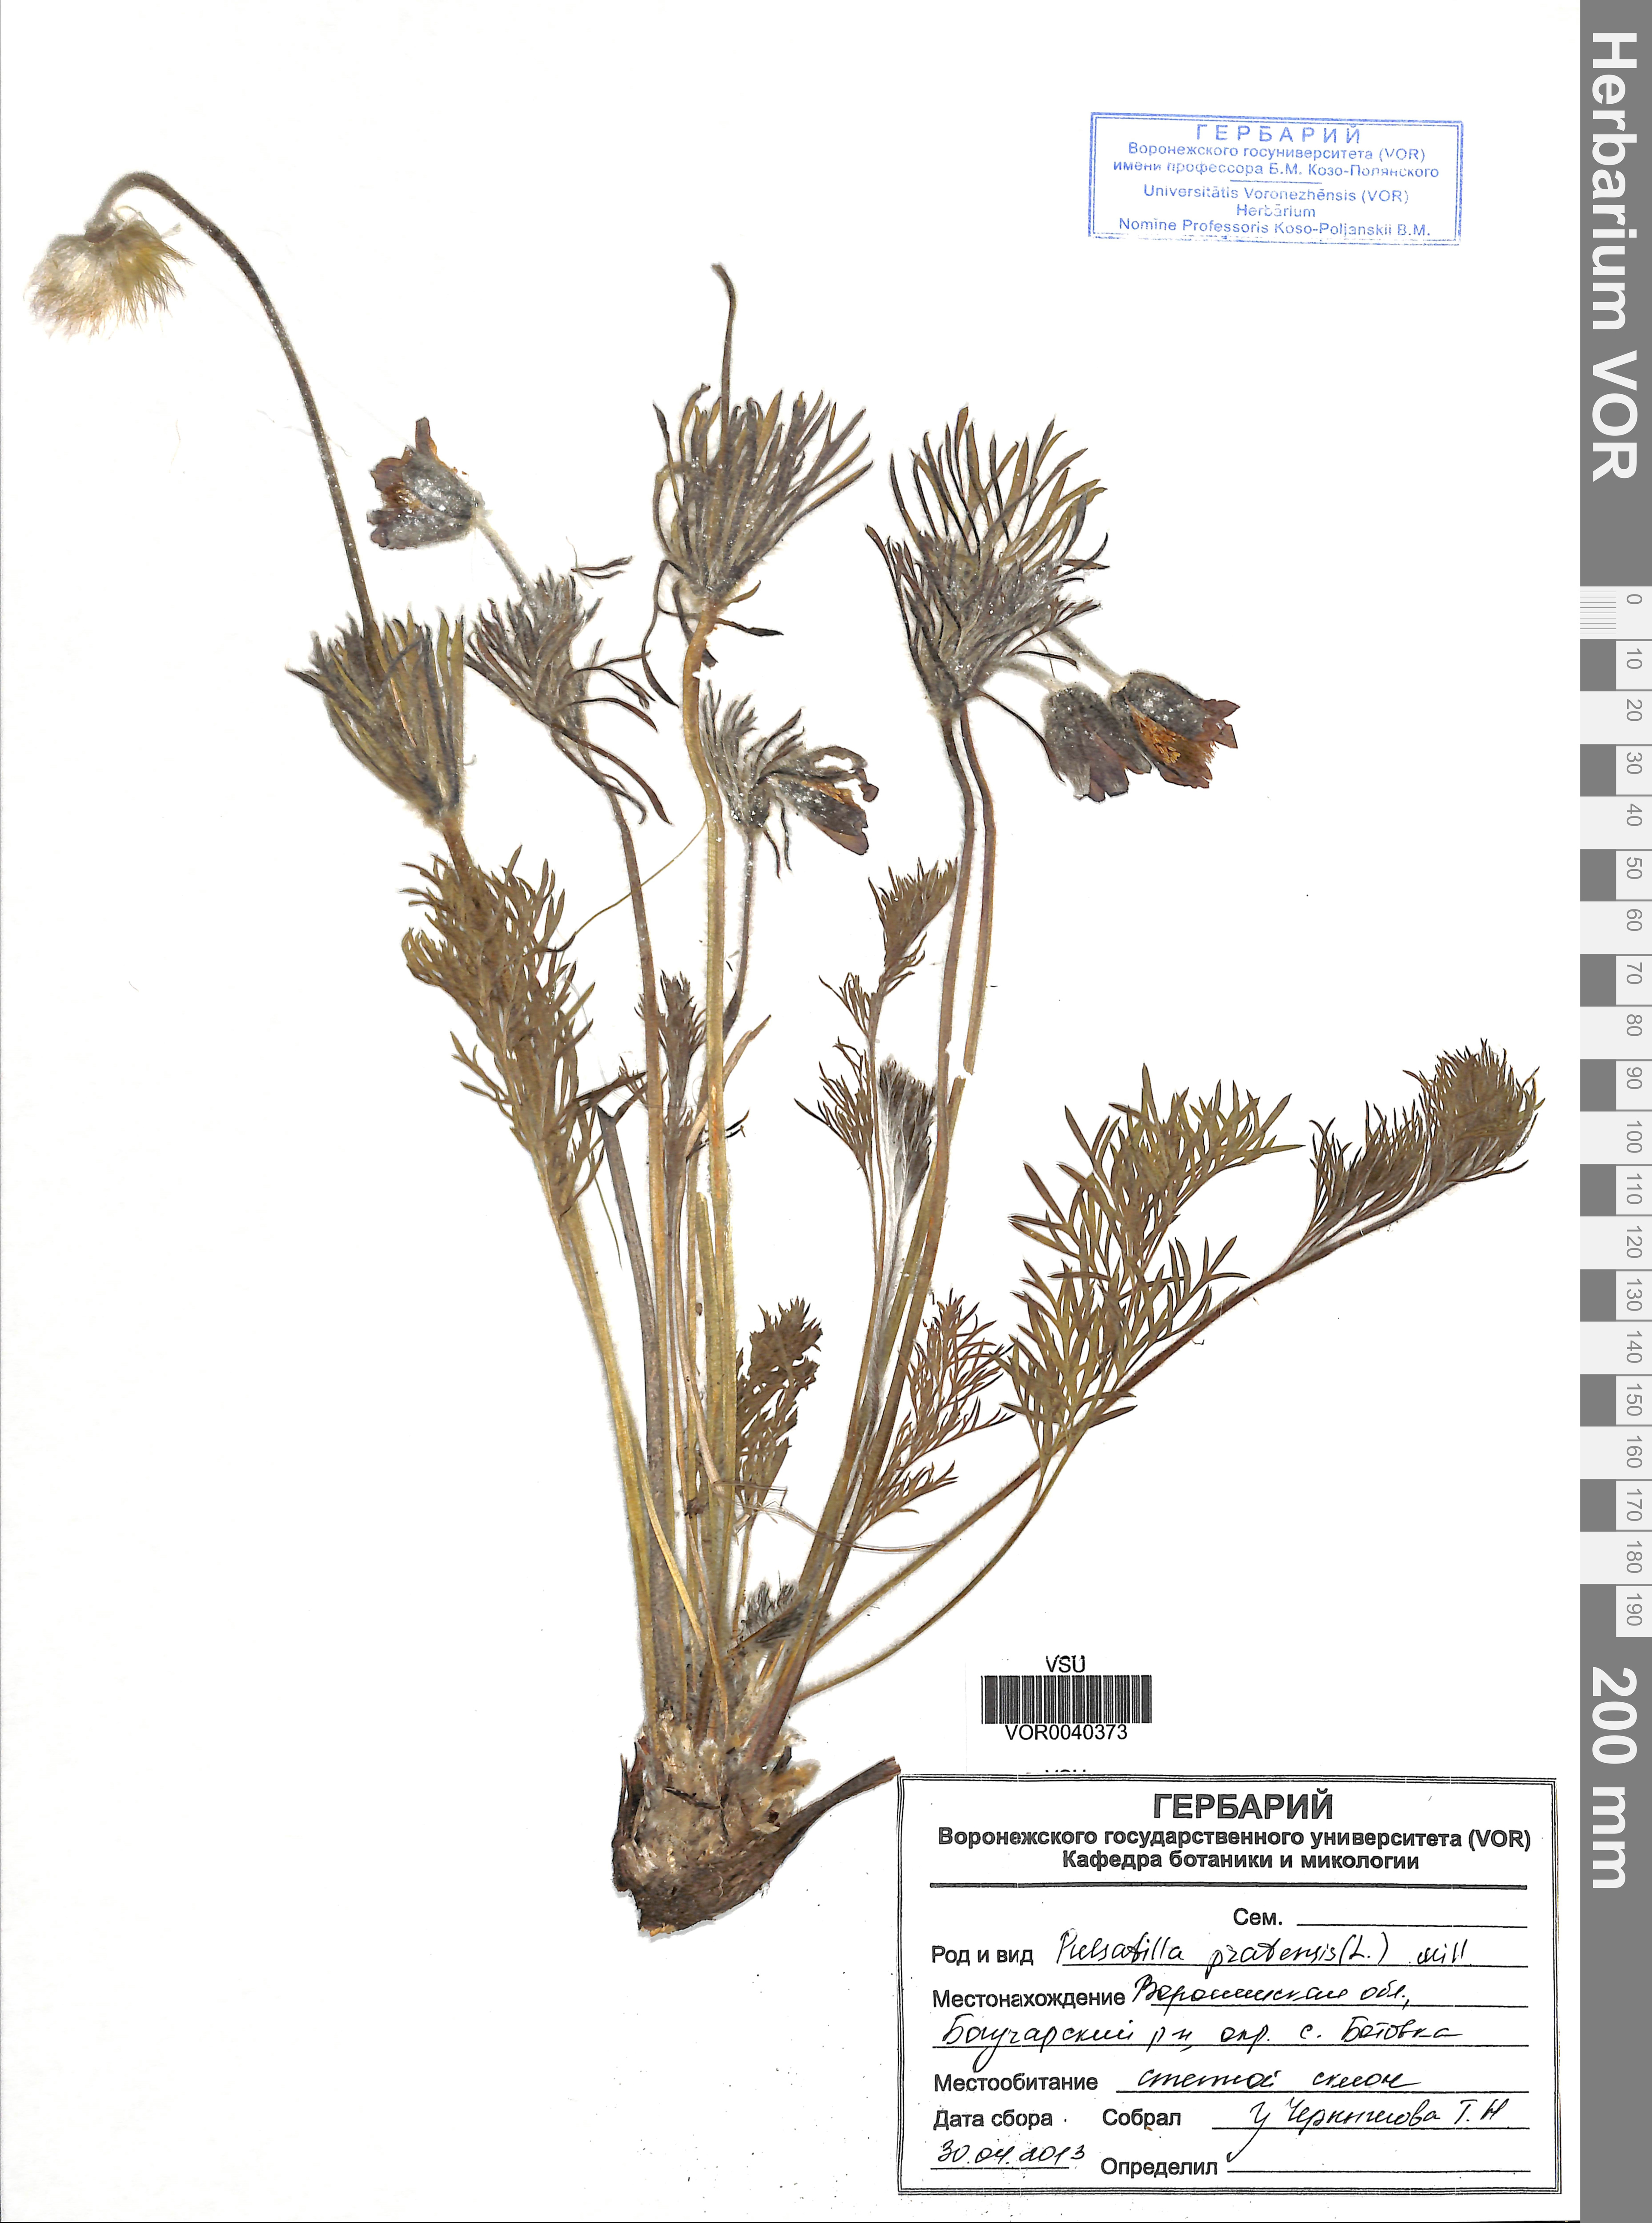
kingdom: Plantae
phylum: Tracheophyta
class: Magnoliopsida
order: Ranunculales
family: Ranunculaceae
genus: Pulsatilla
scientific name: Pulsatilla pratensis
